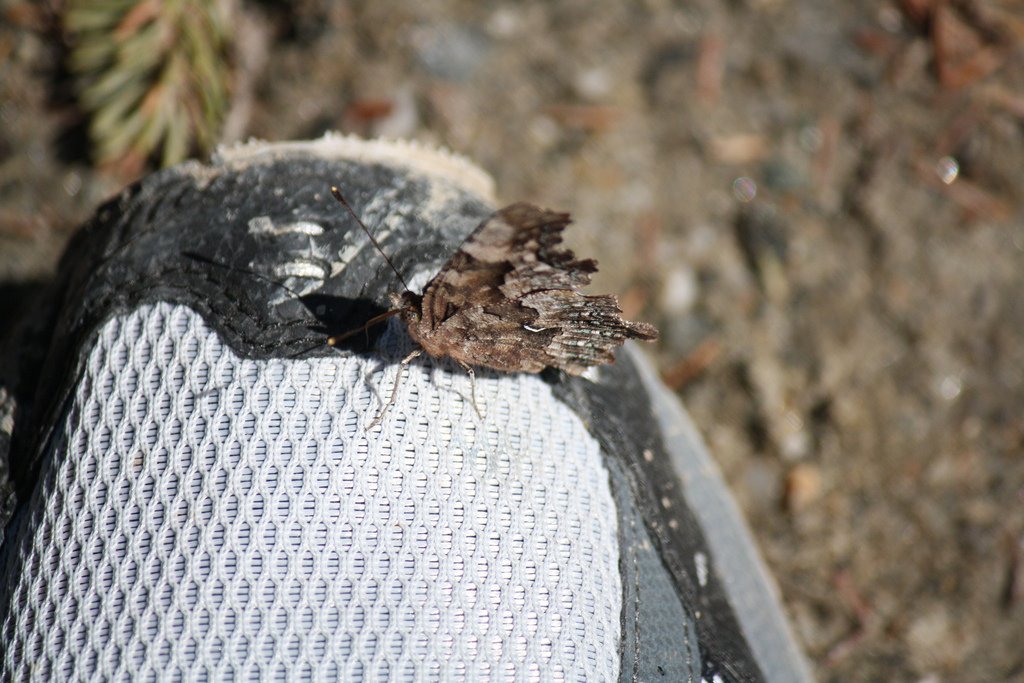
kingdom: Animalia
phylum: Arthropoda
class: Insecta
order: Lepidoptera
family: Nymphalidae
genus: Polygonia
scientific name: Polygonia faunus
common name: Green Comma
